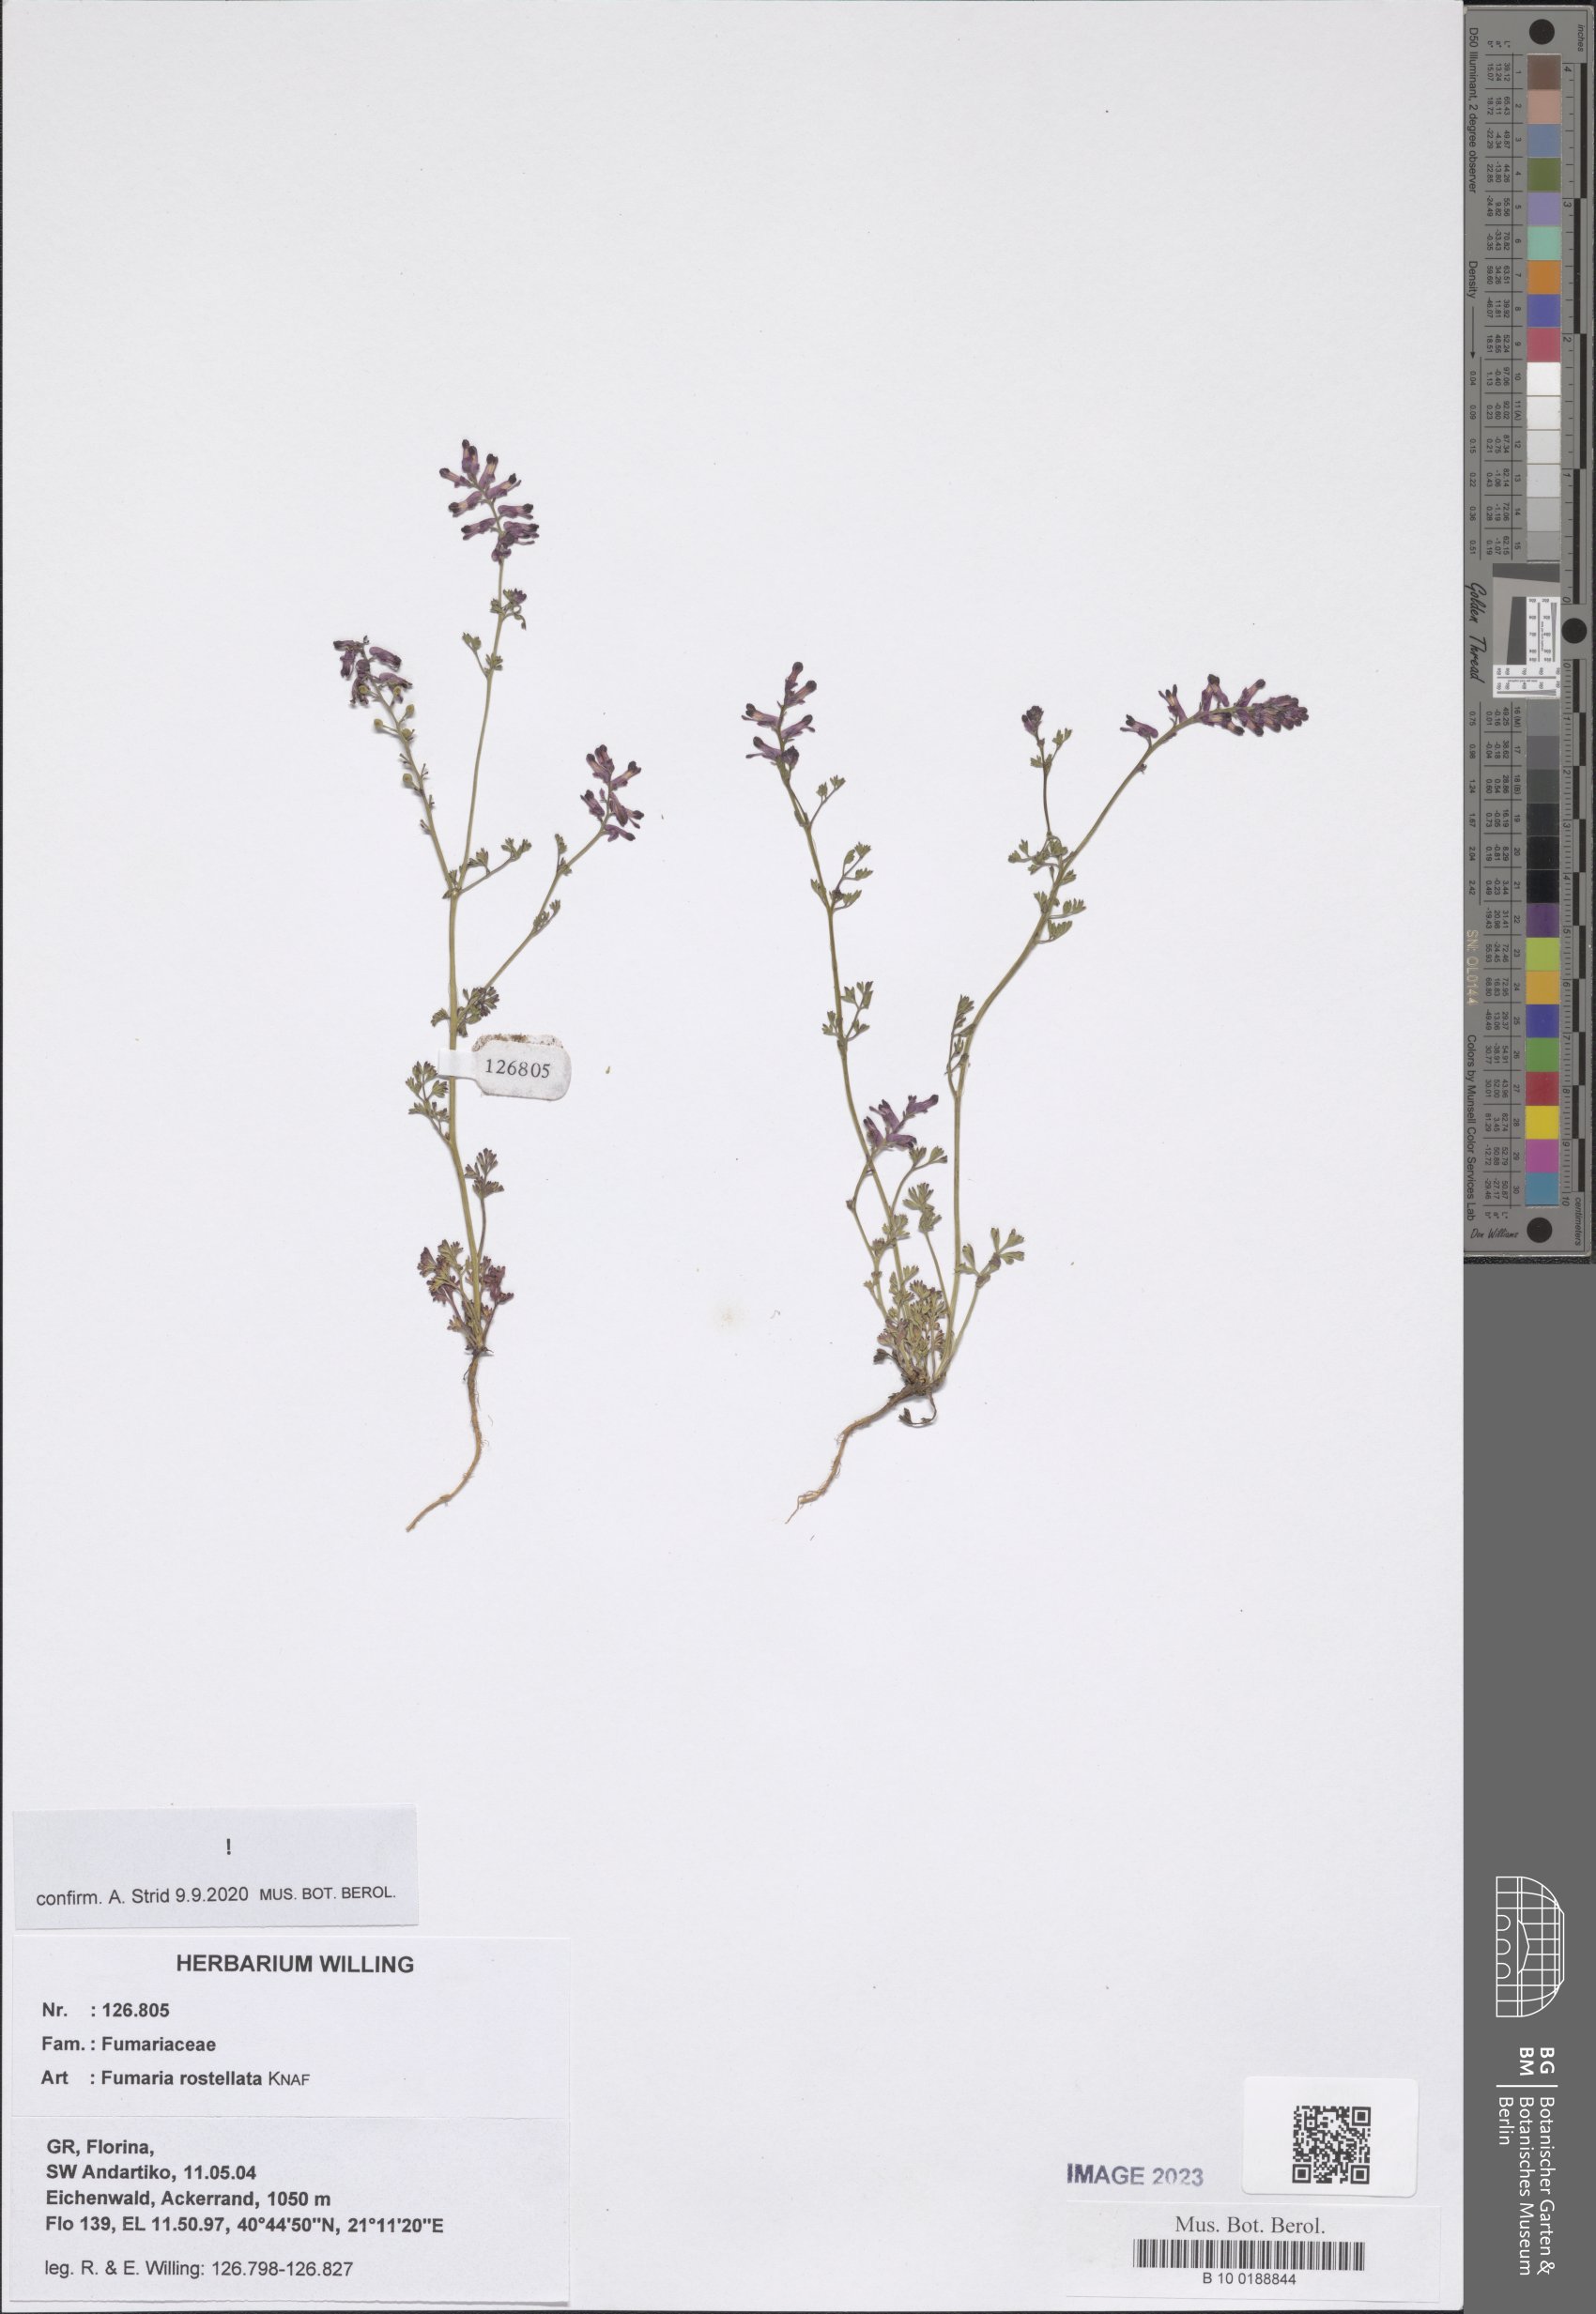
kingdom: Plantae
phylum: Tracheophyta
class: Magnoliopsida
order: Ranunculales
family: Papaveraceae
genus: Fumaria
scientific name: Fumaria rostellata
